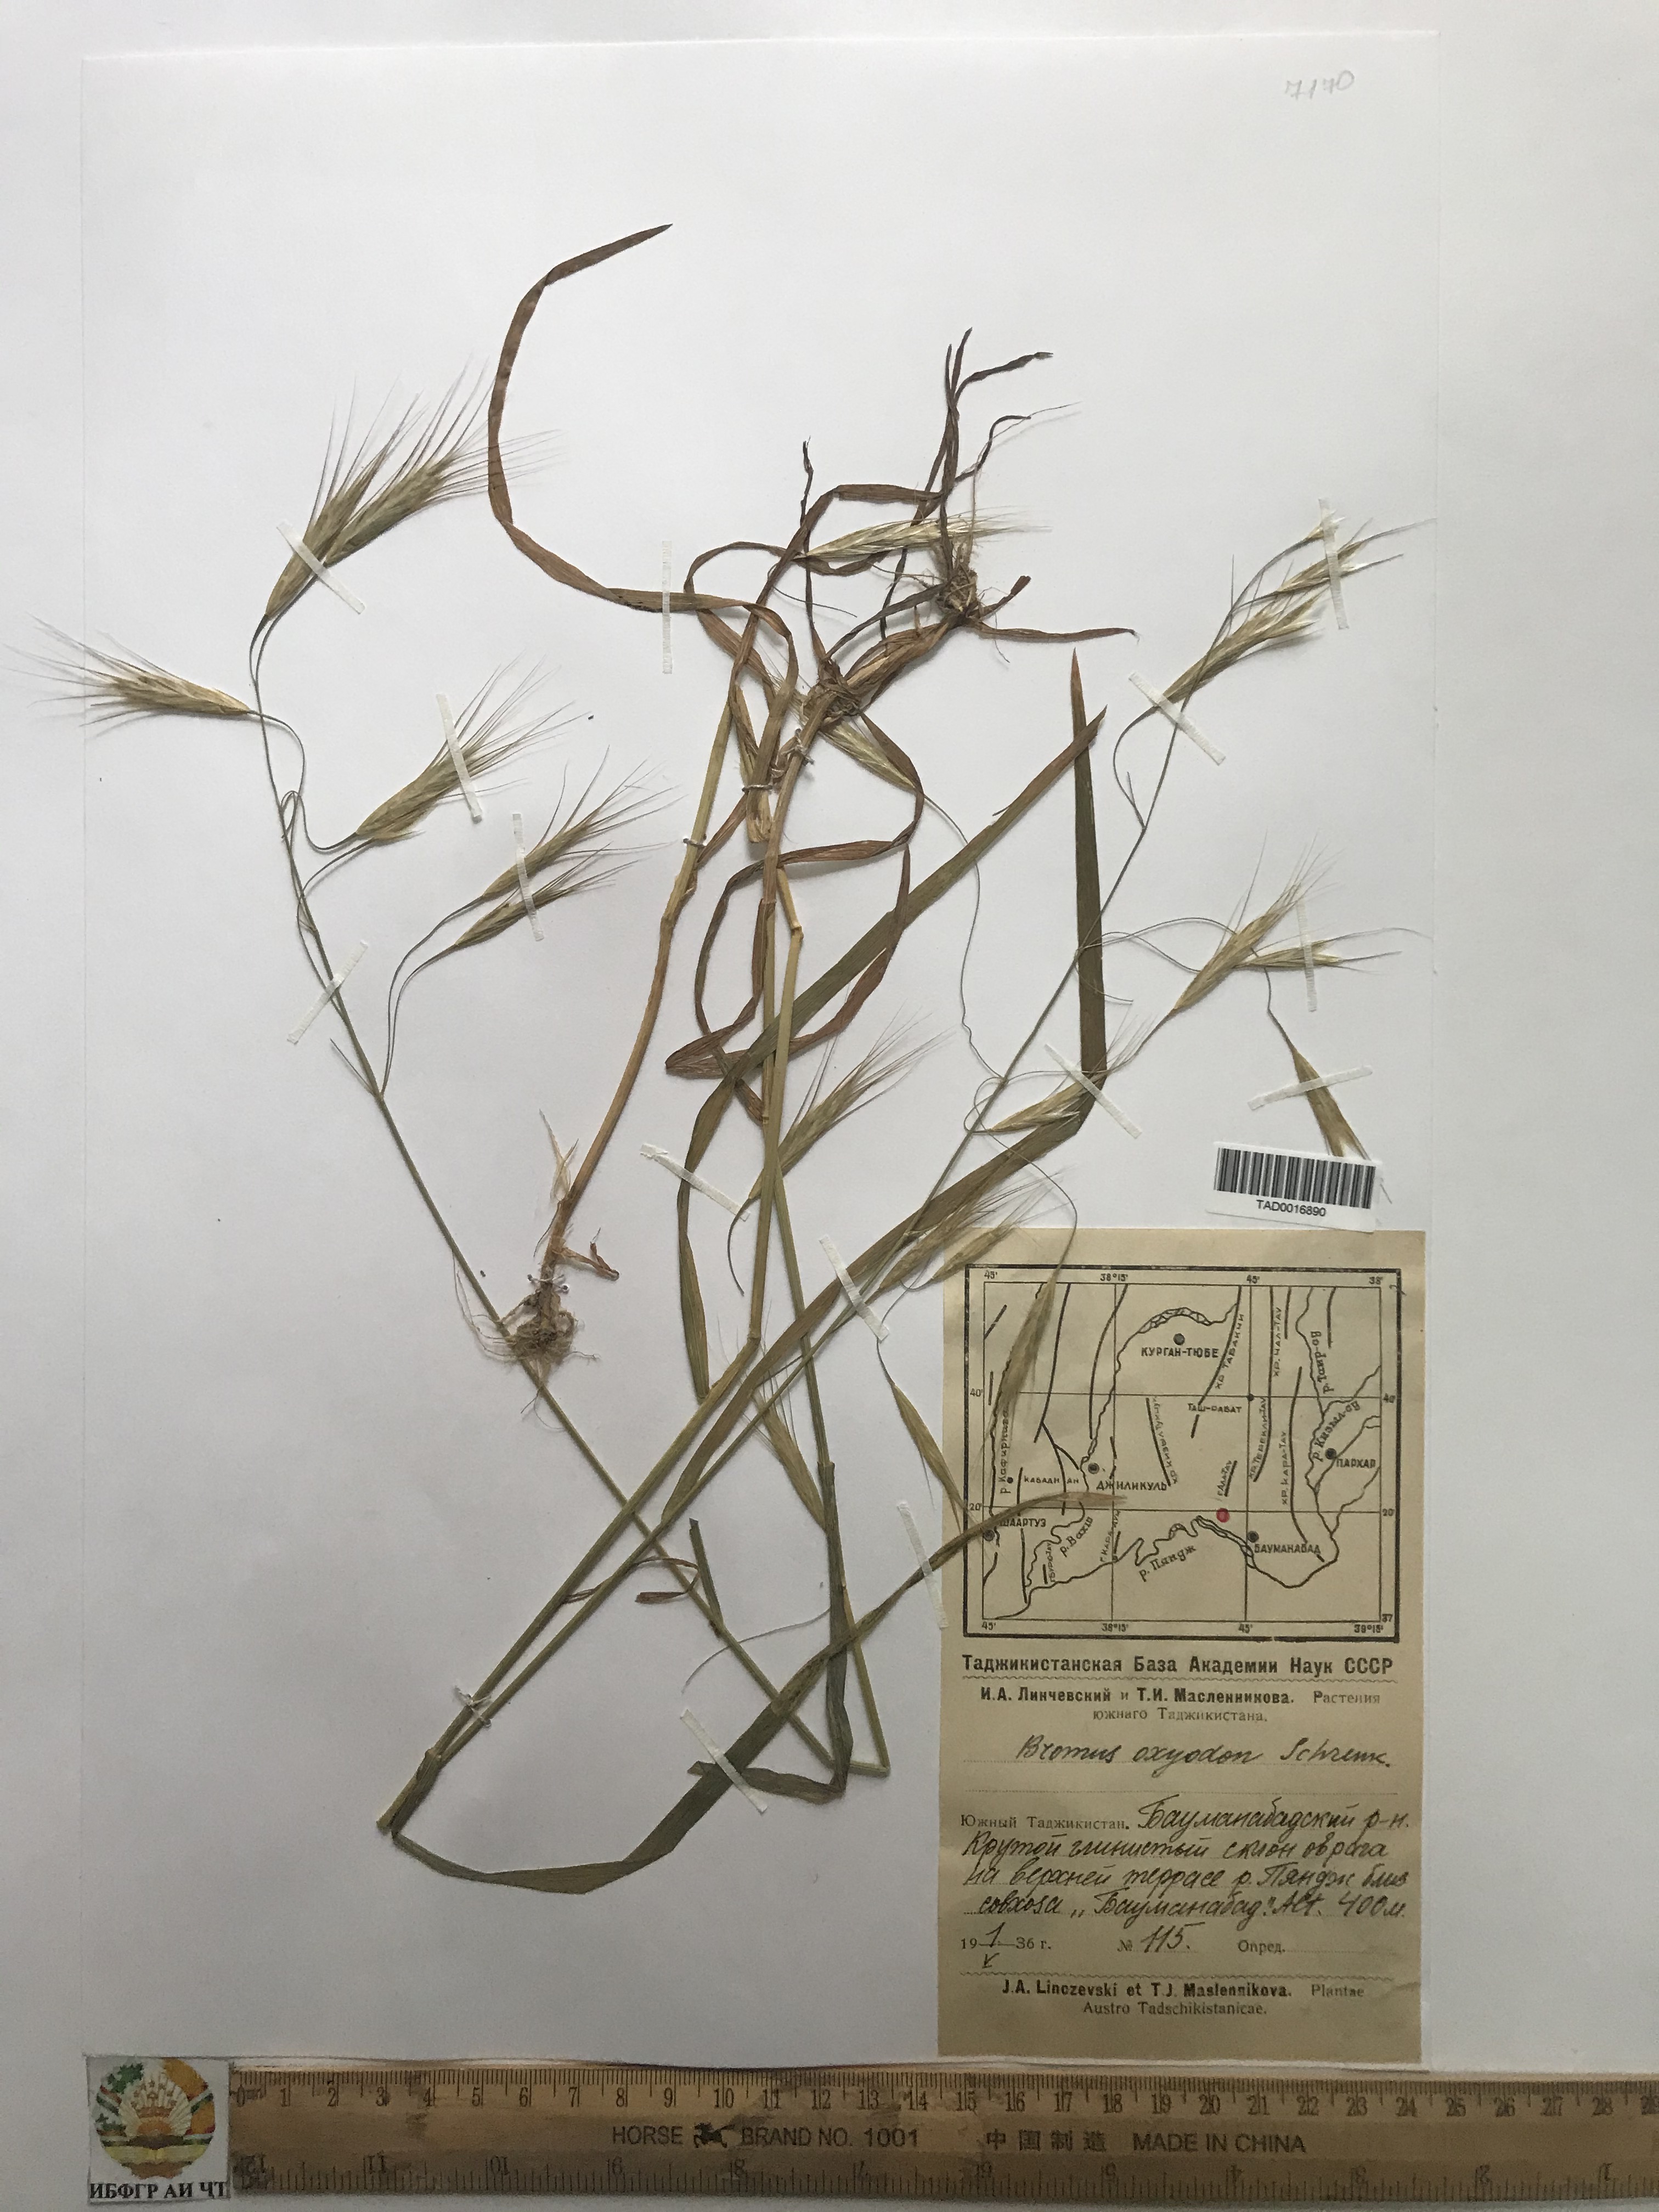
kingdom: Plantae
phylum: Tracheophyta
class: Liliopsida
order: Poales
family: Poaceae
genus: Bromus
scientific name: Bromus oxyodon
